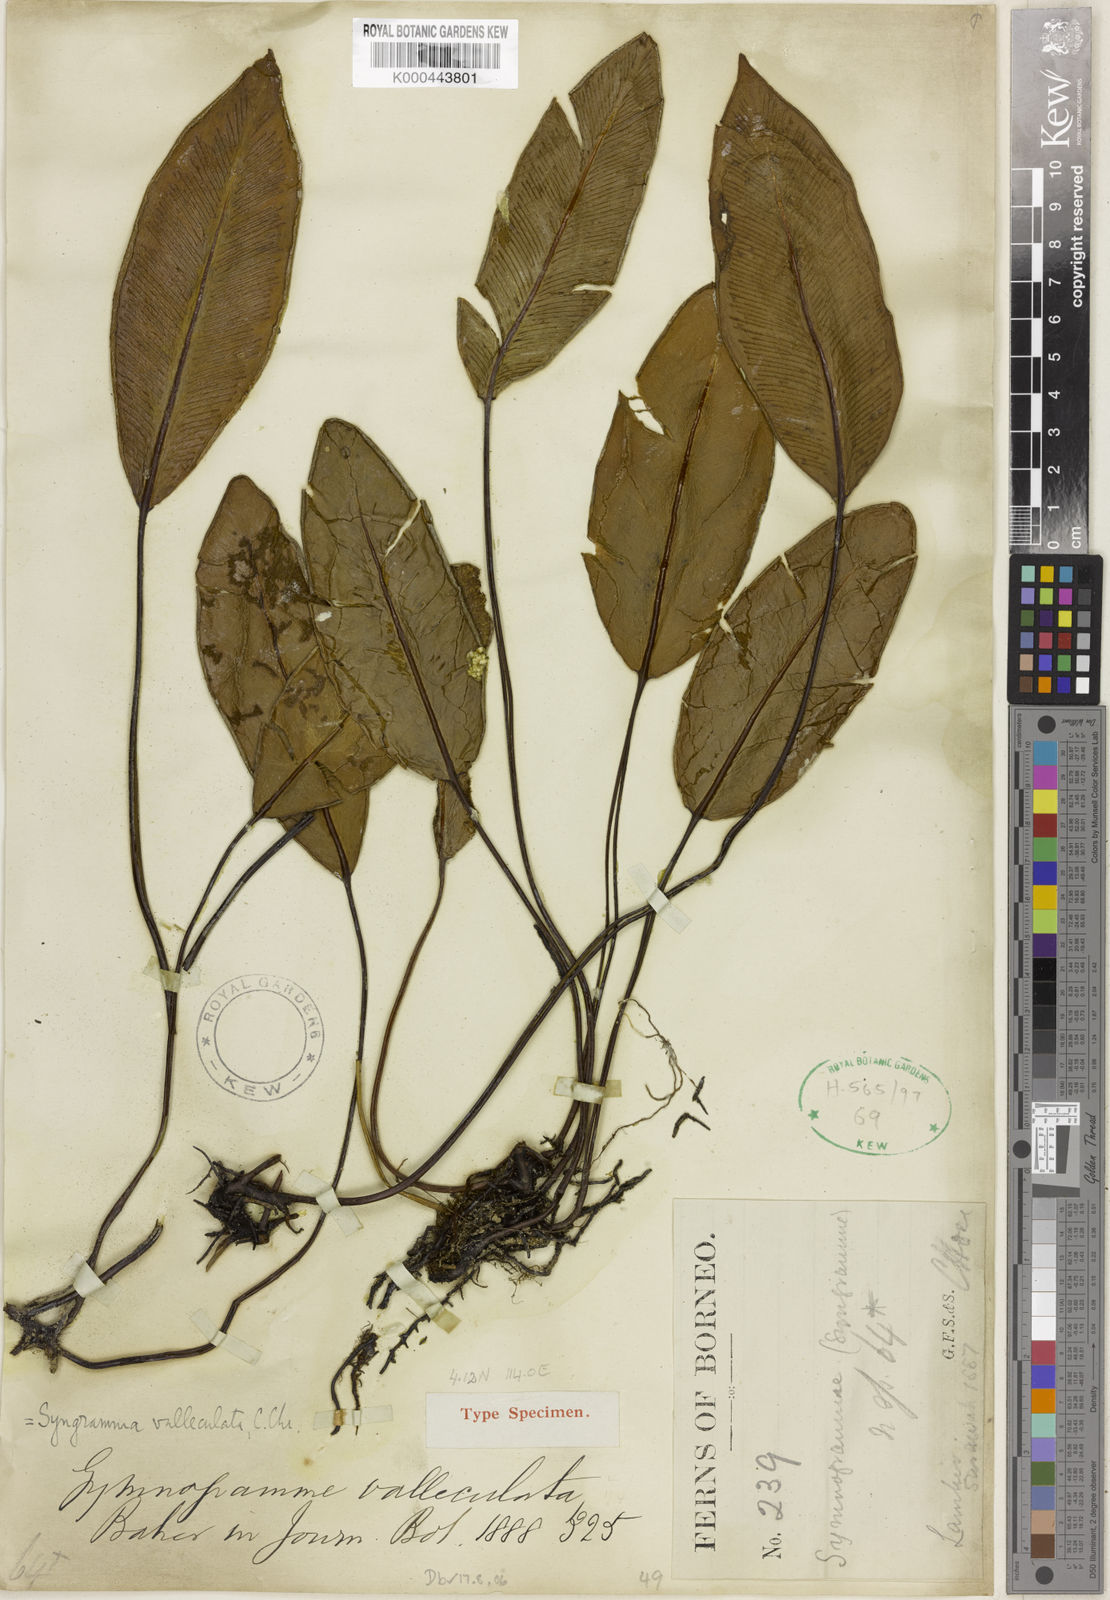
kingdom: Plantae
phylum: Tracheophyta
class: Polypodiopsida
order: Polypodiales
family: Pteridaceae
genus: Syngramma
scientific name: Syngramma valleculata
